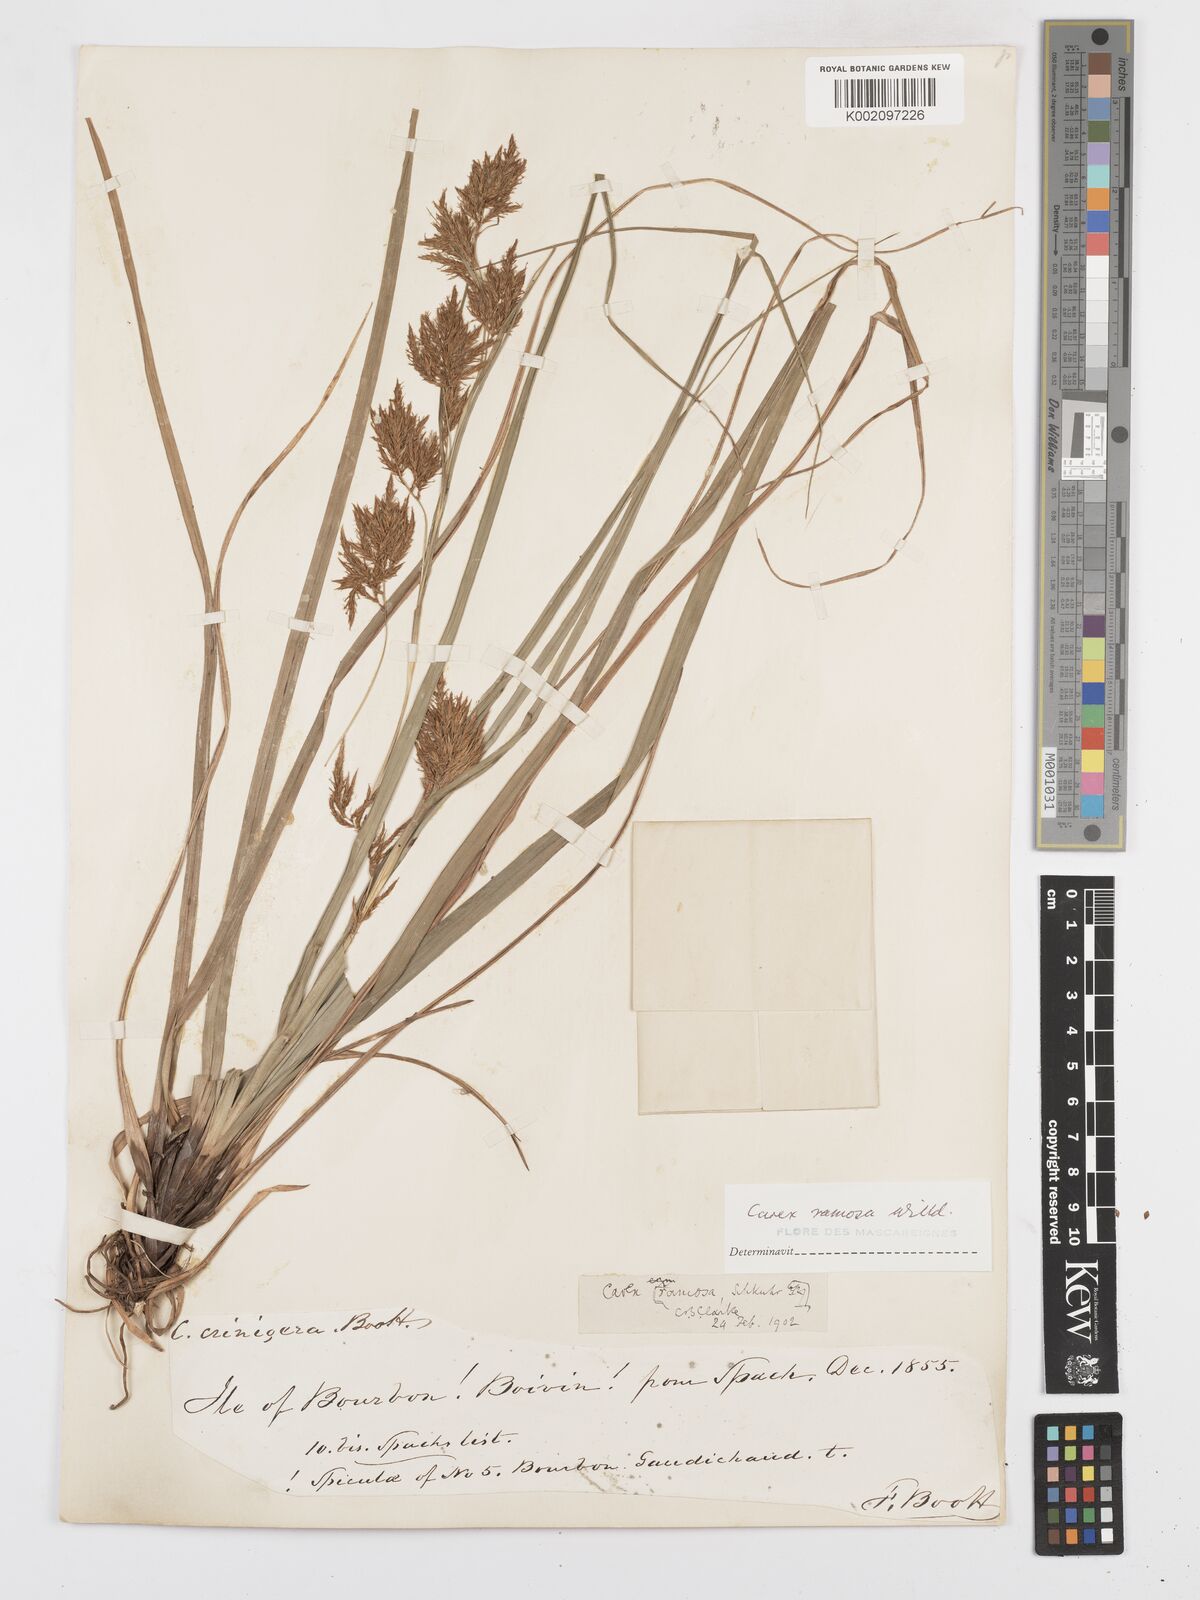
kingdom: Plantae
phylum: Tracheophyta
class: Liliopsida
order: Poales
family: Cyperaceae
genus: Carex
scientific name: Carex ramosa
